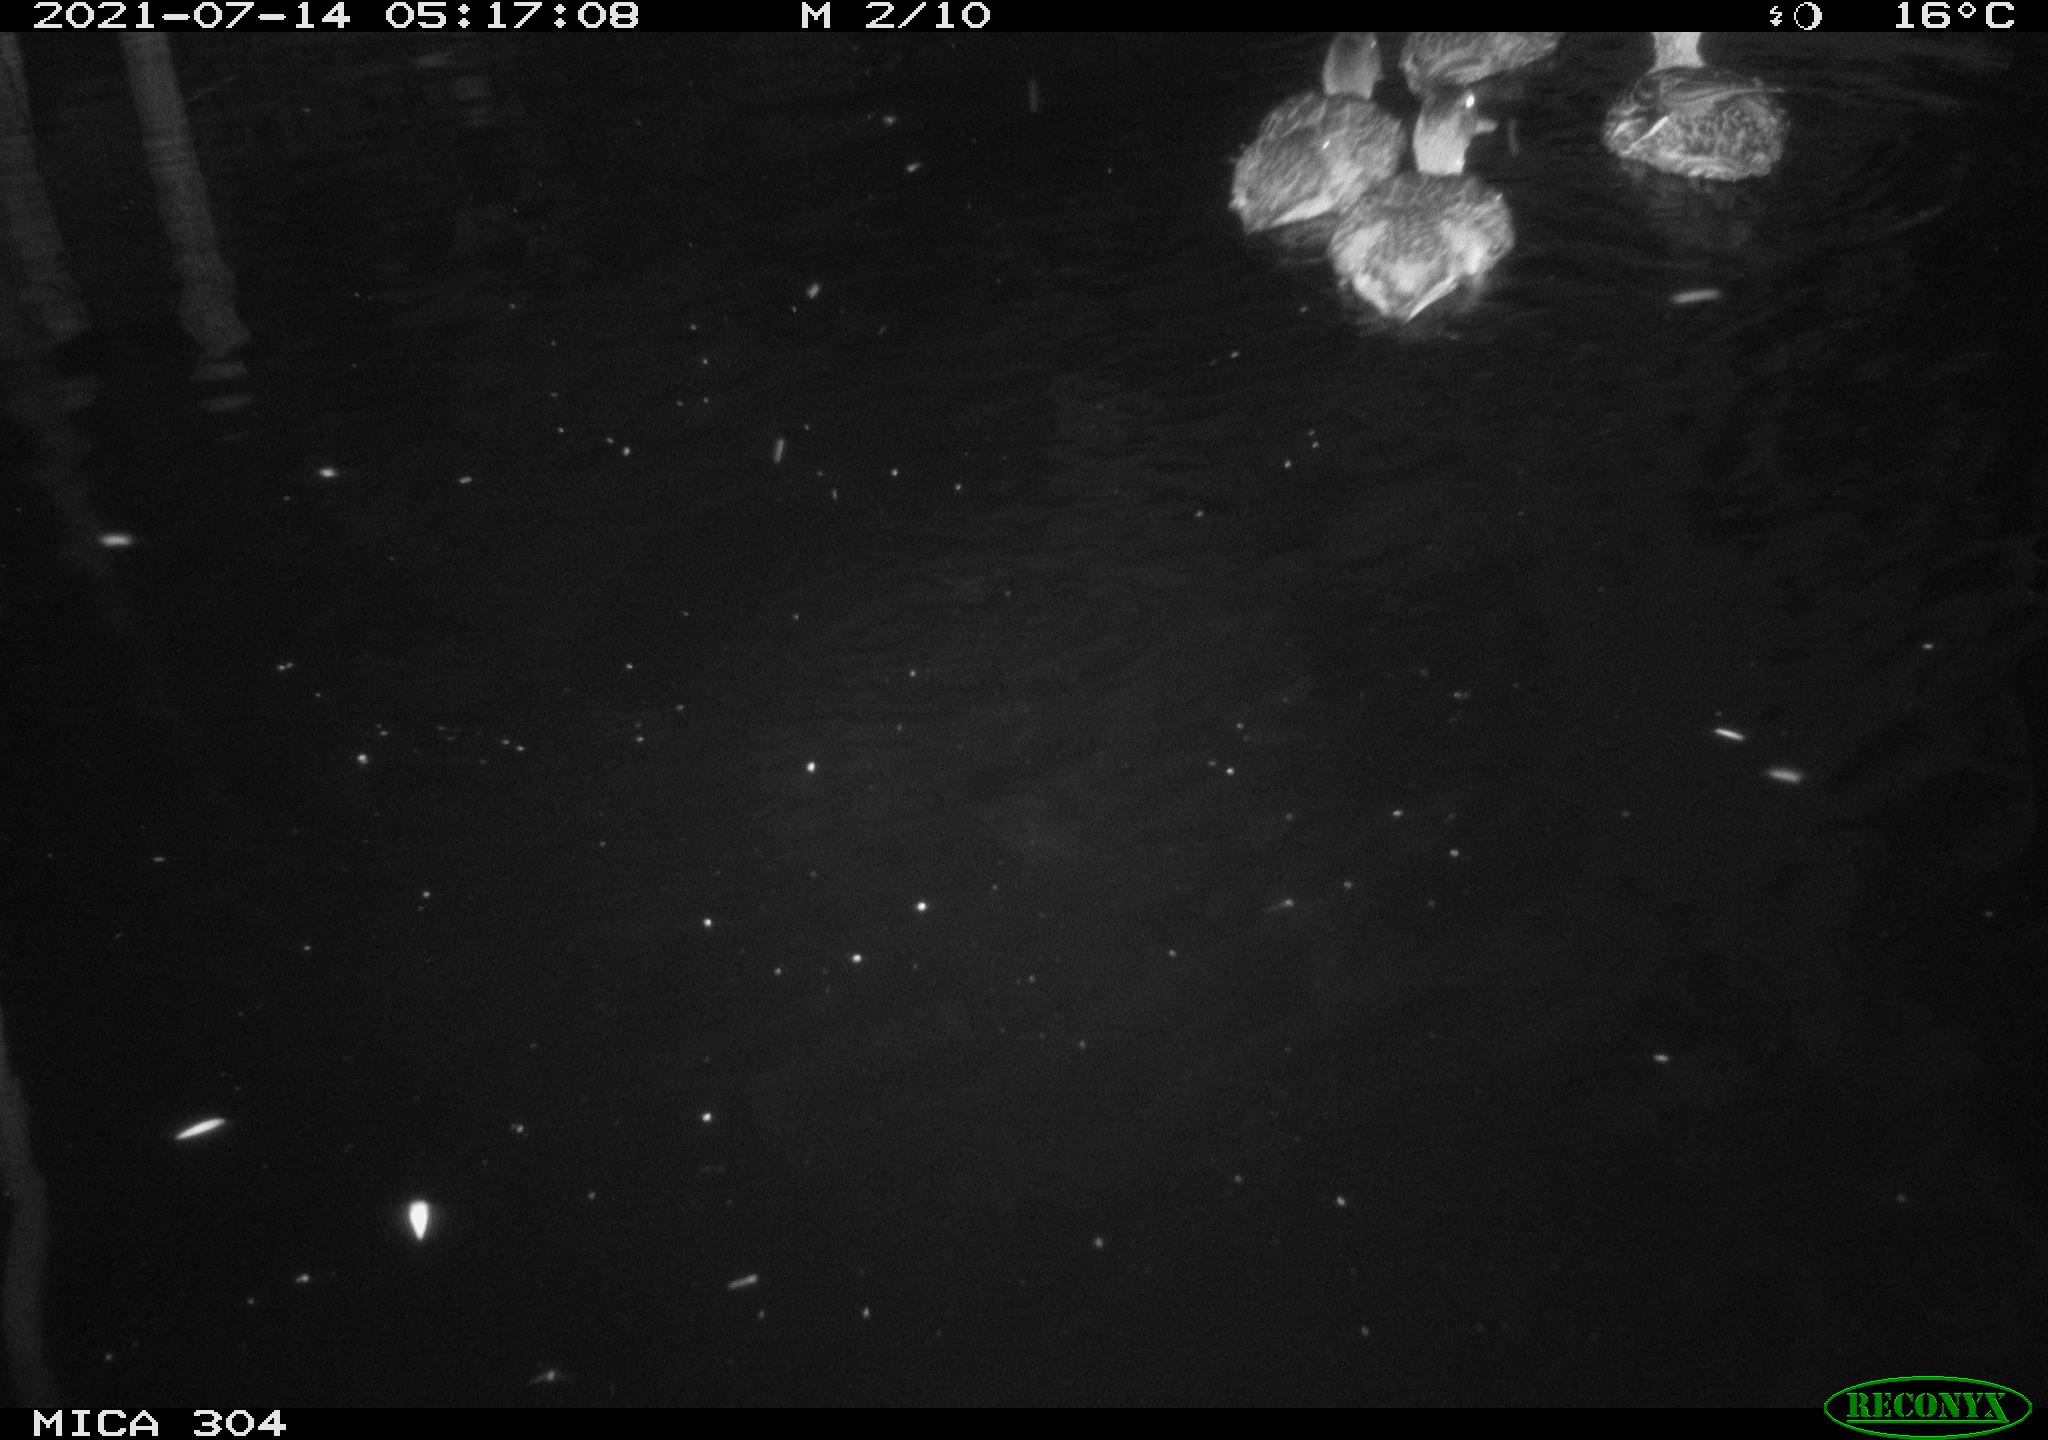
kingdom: Animalia
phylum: Chordata
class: Aves
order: Anseriformes
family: Anatidae
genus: Anas
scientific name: Anas platyrhynchos
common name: Mallard
